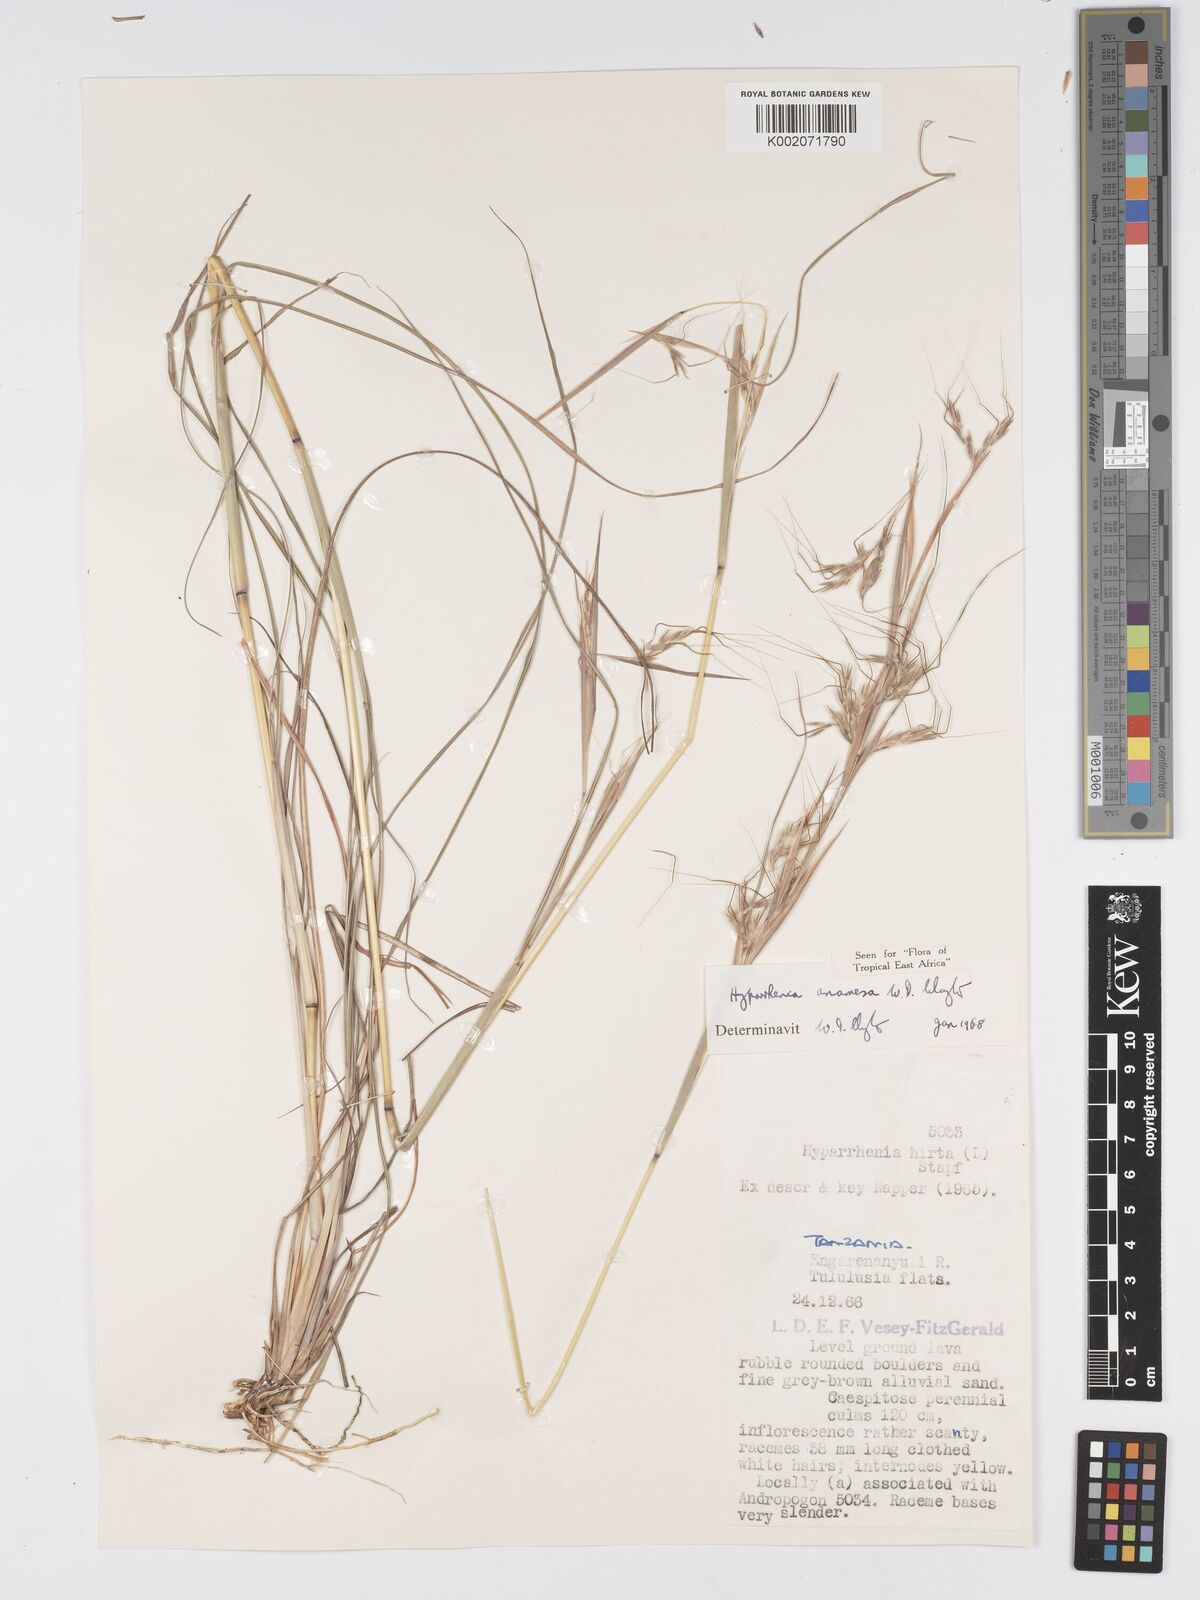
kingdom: Plantae
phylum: Tracheophyta
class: Liliopsida
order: Poales
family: Poaceae
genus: Hyparrhenia
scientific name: Hyparrhenia anamesa
